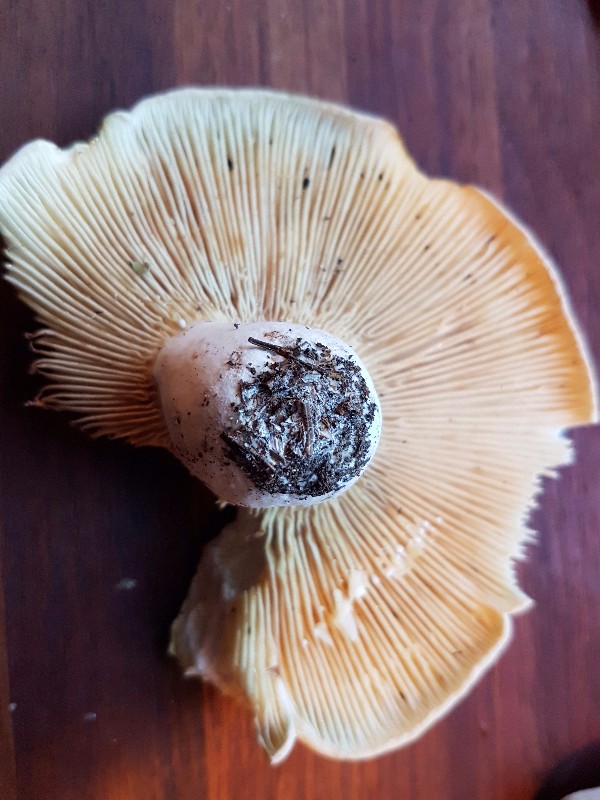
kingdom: Fungi
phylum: Basidiomycota
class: Agaricomycetes
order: Russulales
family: Russulaceae
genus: Lactifluus
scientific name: Lactifluus bertillonii
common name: blødfiltet mælkehat
